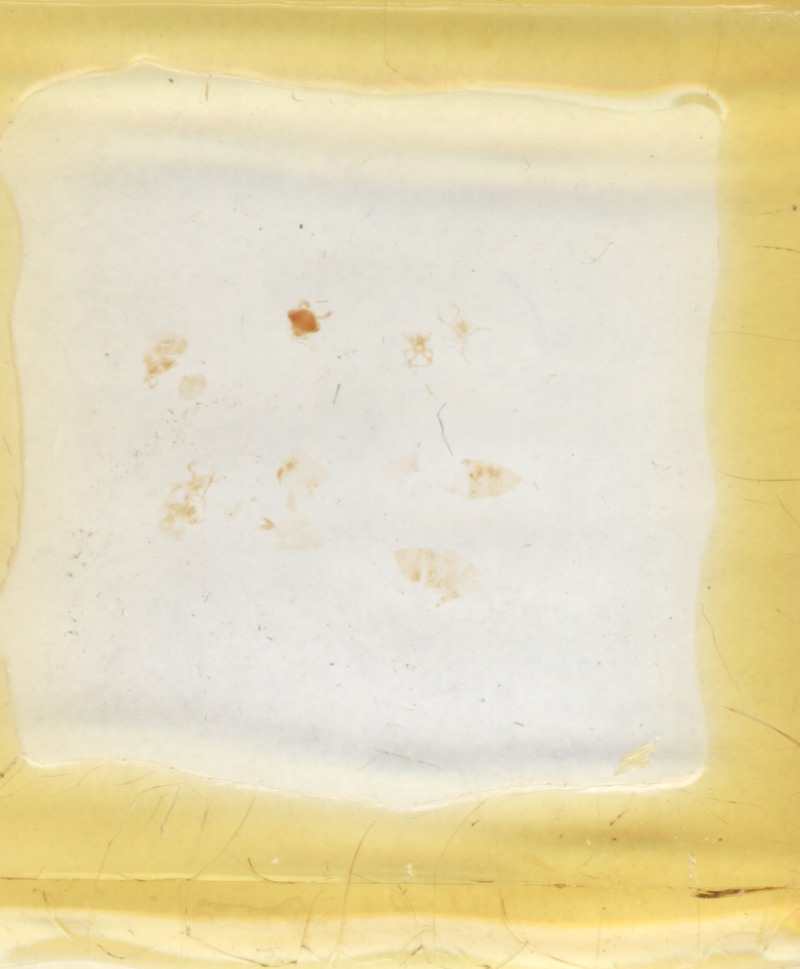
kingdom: Animalia
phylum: Arthropoda
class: Diplopoda
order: Glomerida
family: Glomeridae
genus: Glomeris
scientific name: Glomeris pustulata
